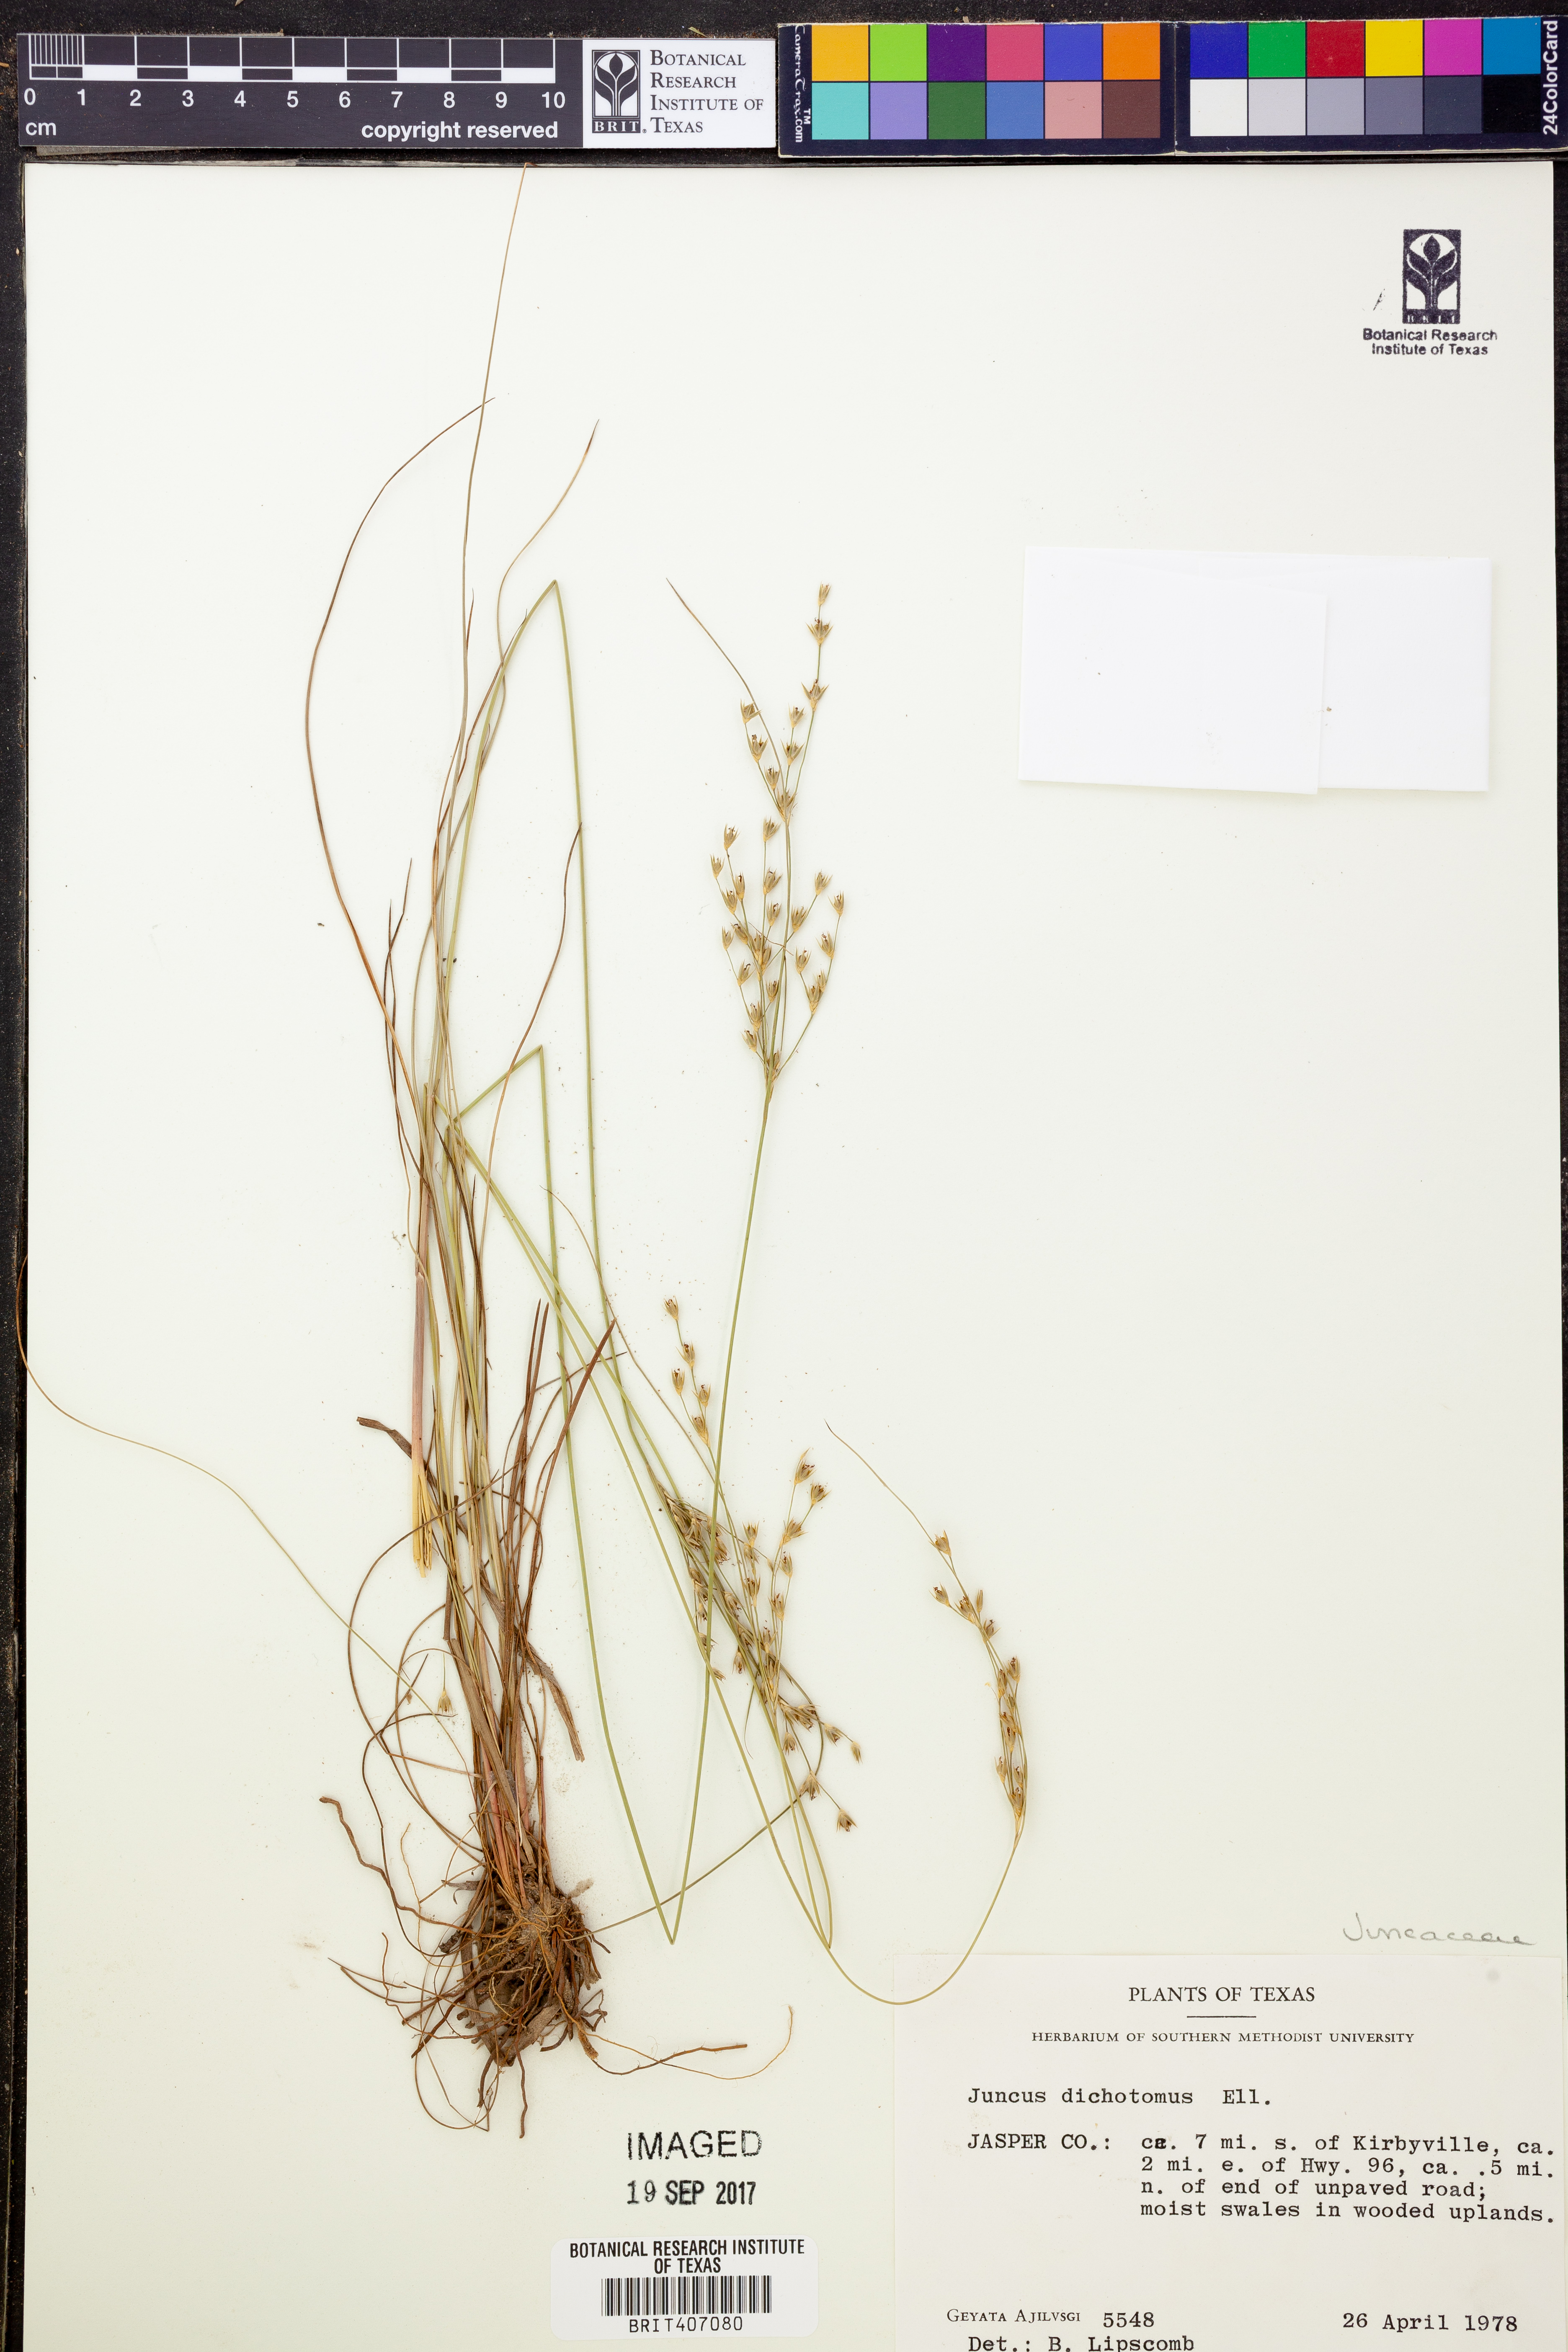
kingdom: Plantae
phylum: Tracheophyta
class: Liliopsida
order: Poales
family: Juncaceae
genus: Juncus
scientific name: Juncus dichotomus
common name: Forked rush
